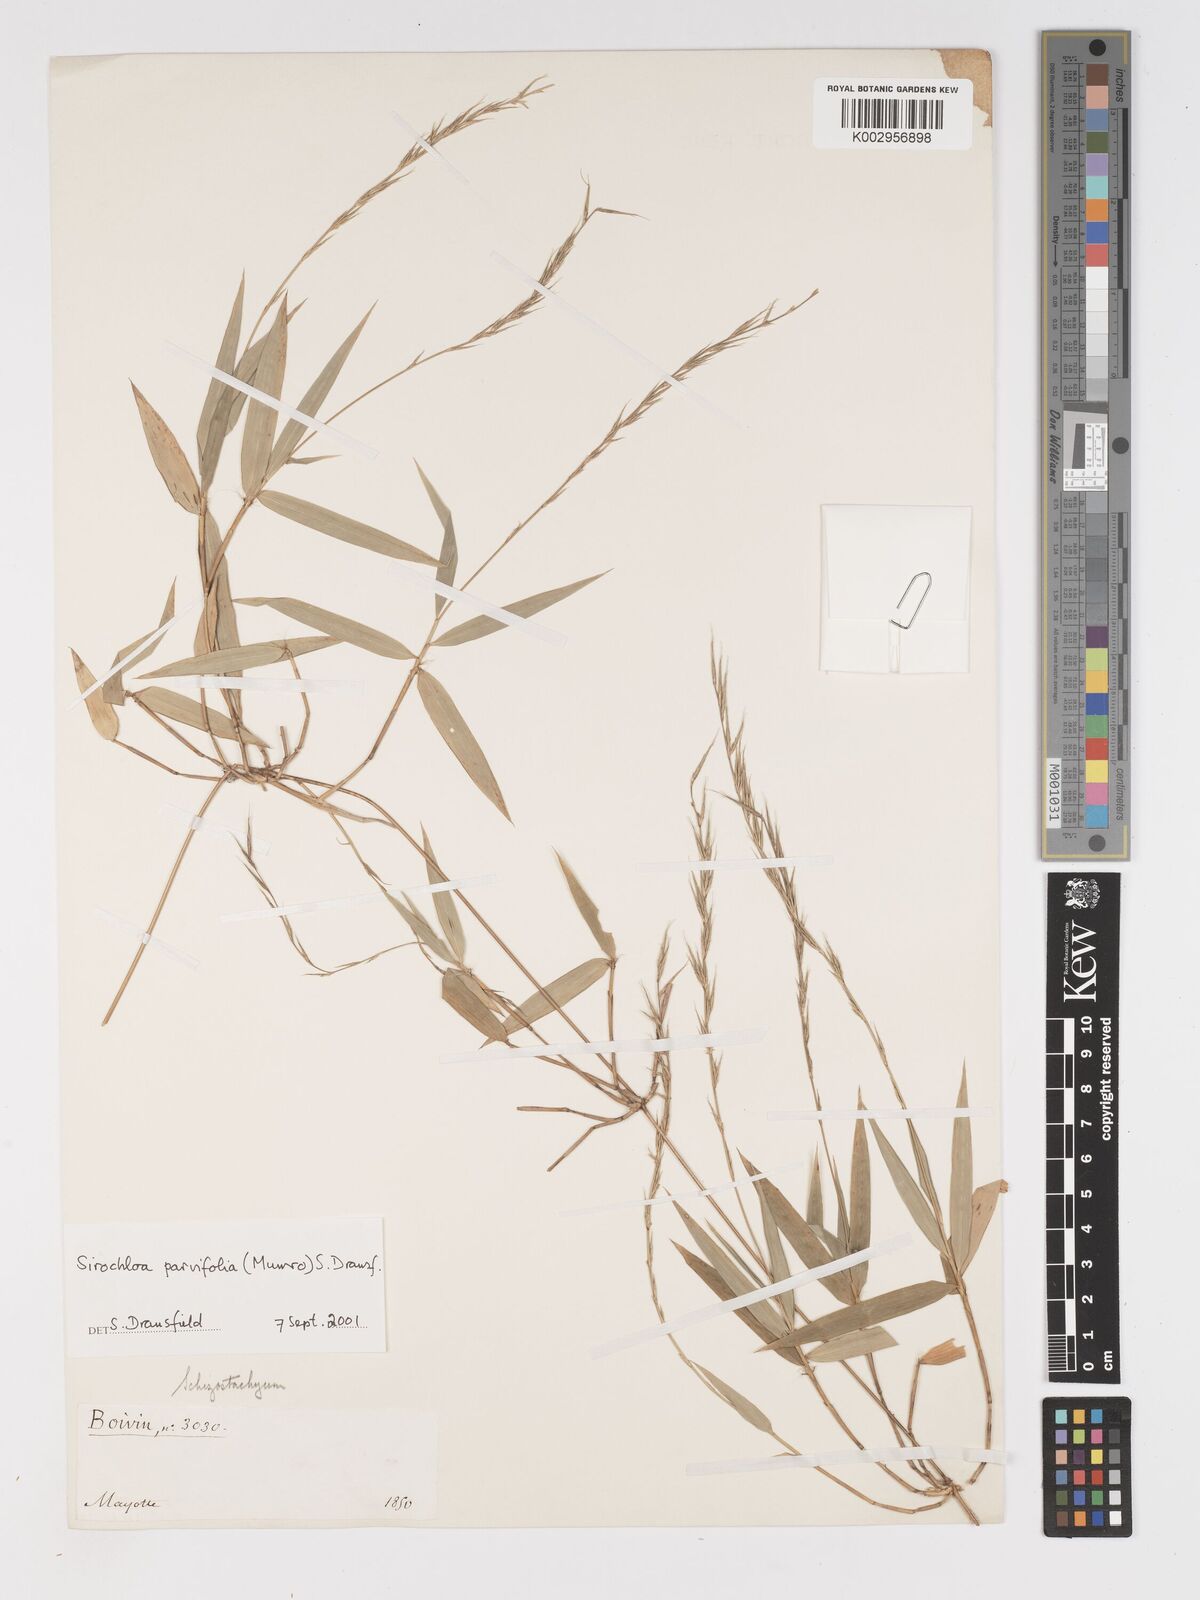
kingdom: Plantae
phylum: Tracheophyta
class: Liliopsida
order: Poales
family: Poaceae
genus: Sirochloa
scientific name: Sirochloa parvifolia
